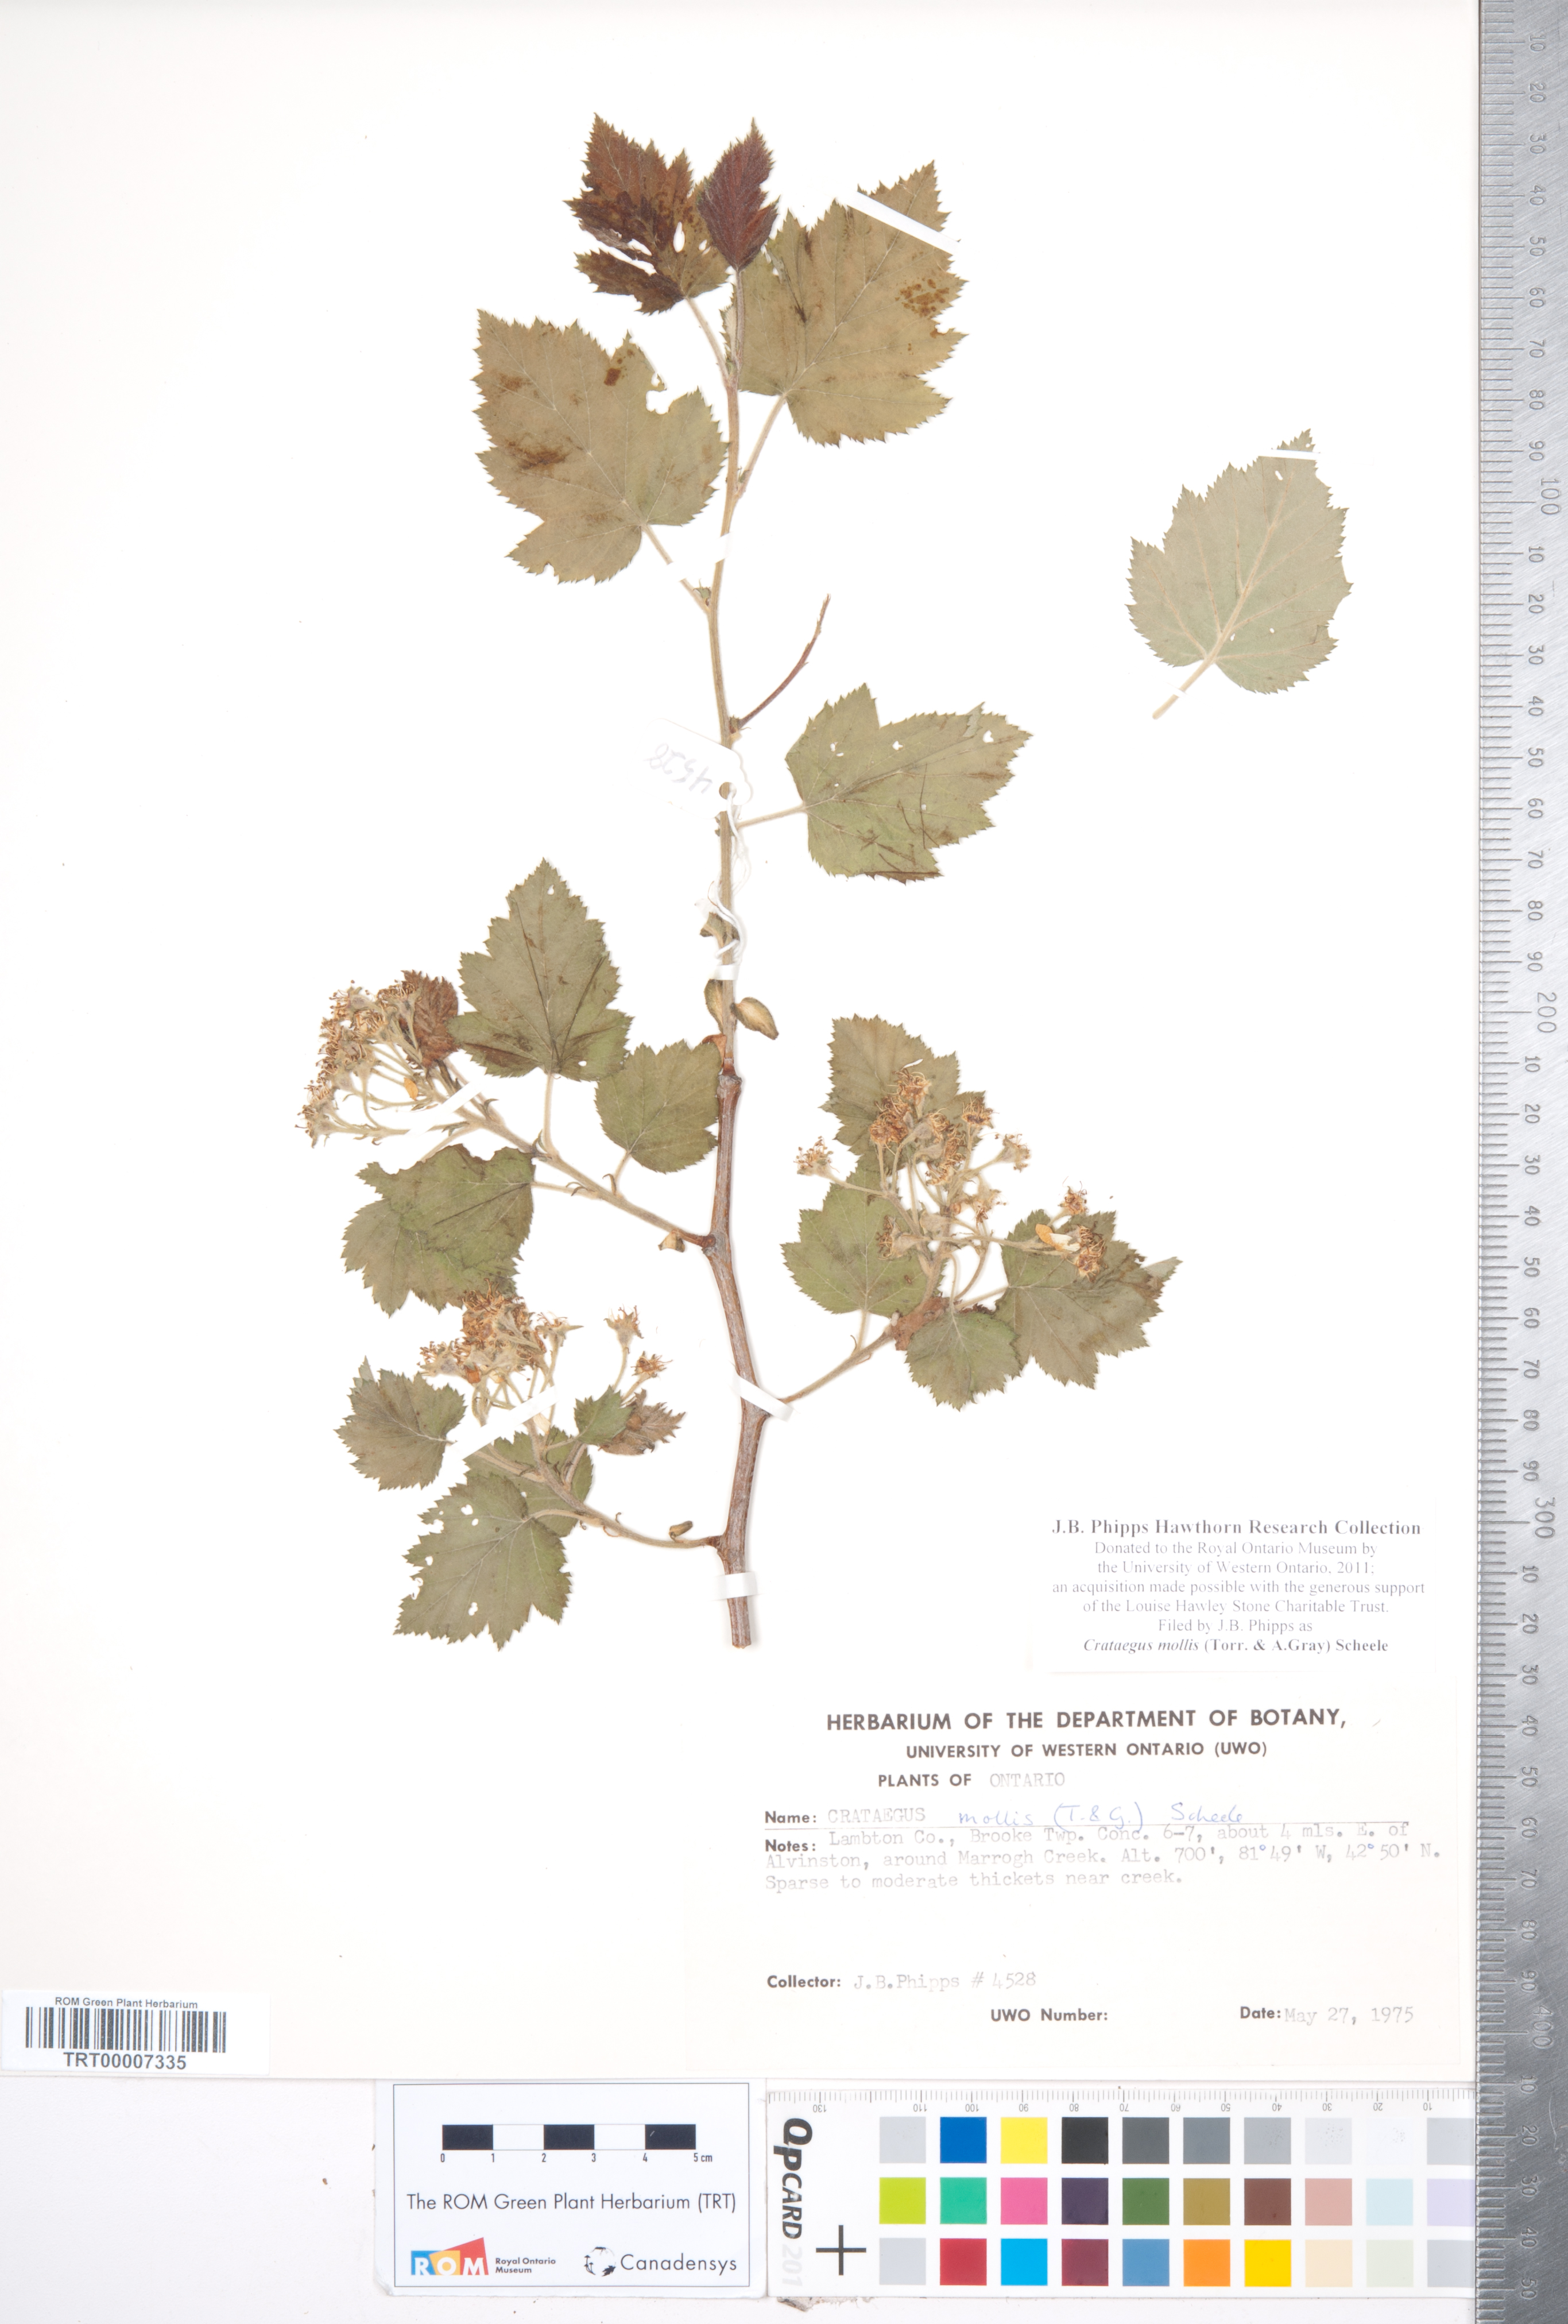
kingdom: Plantae
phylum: Tracheophyta
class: Magnoliopsida
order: Rosales
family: Rosaceae
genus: Crataegus
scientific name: Crataegus mollis
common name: Downy hawthorn
